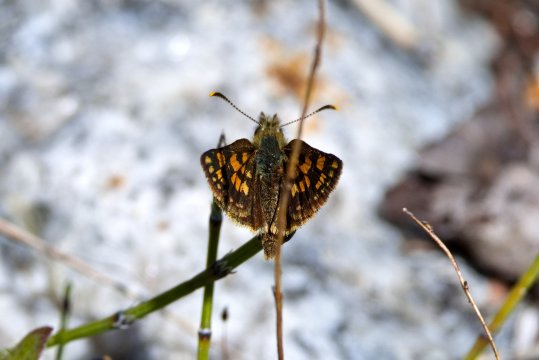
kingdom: Animalia
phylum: Arthropoda
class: Insecta
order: Lepidoptera
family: Hesperiidae
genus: Carterocephalus
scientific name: Carterocephalus mandan
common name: Arctic Skipperling
